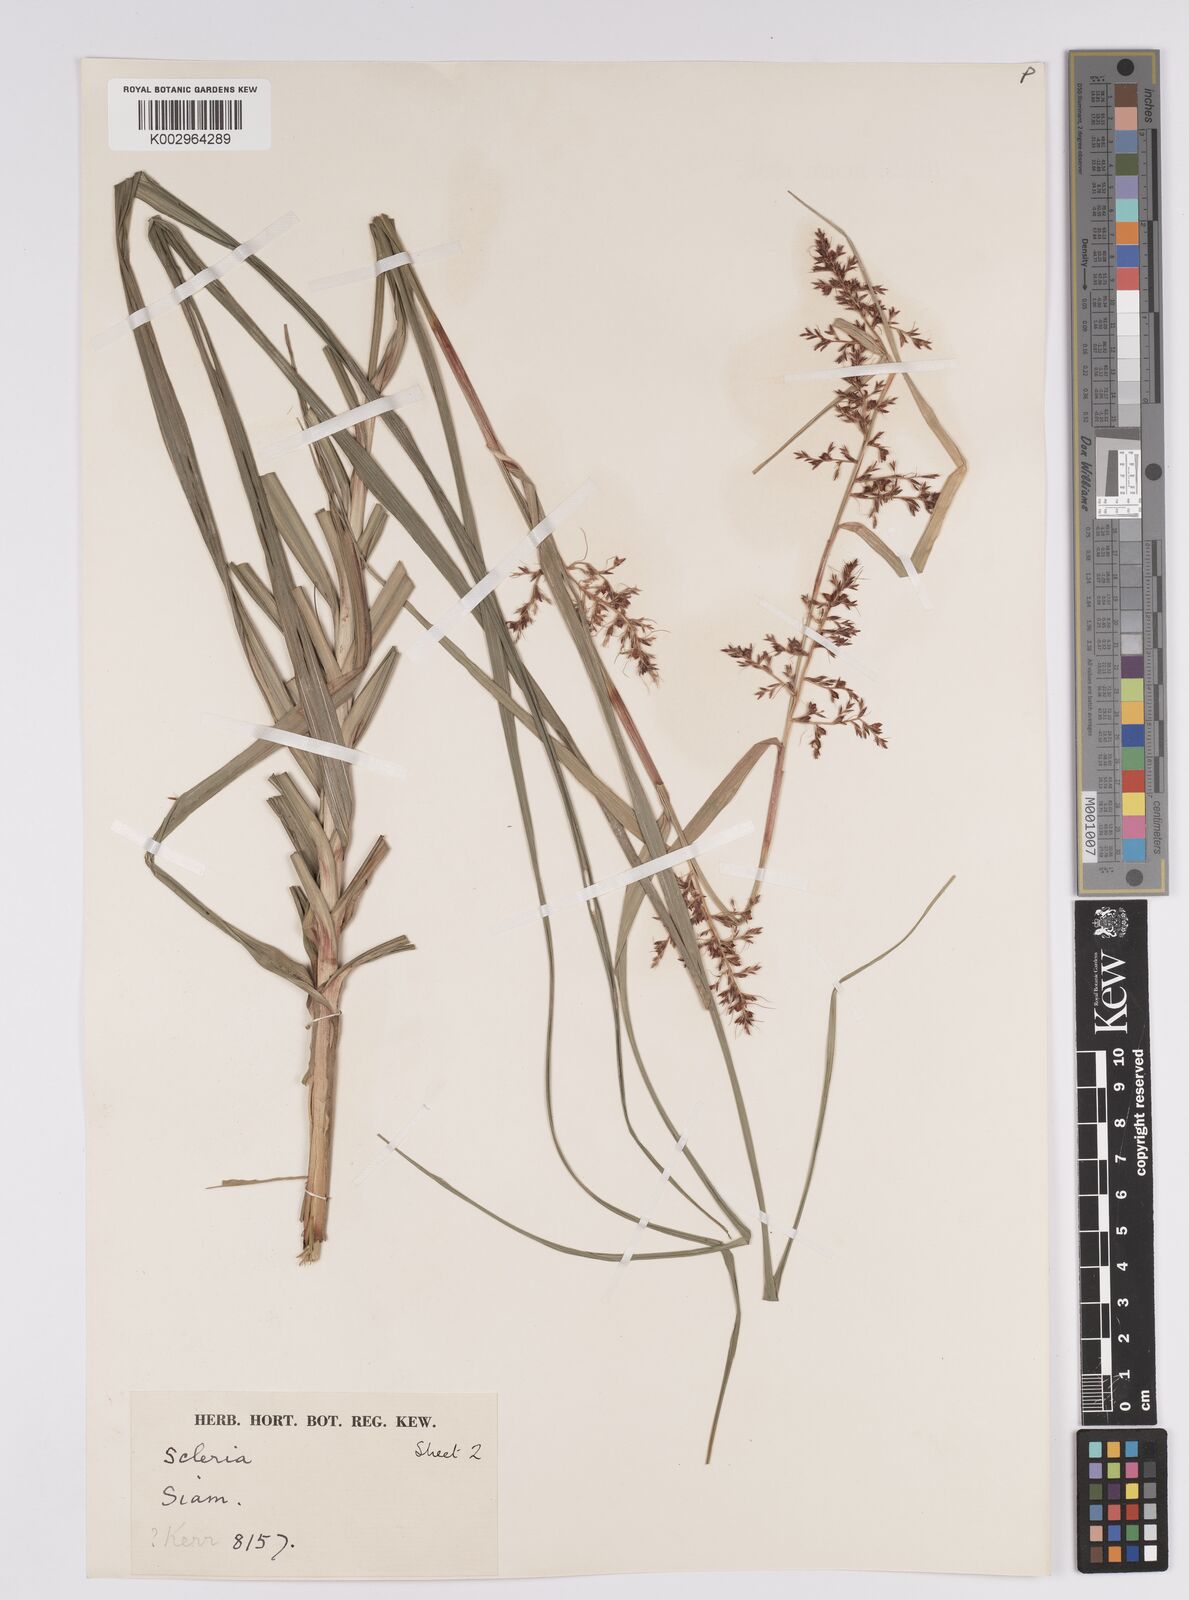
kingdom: Plantae
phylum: Tracheophyta
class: Liliopsida
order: Poales
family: Cyperaceae
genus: Scleria
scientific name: Scleria
